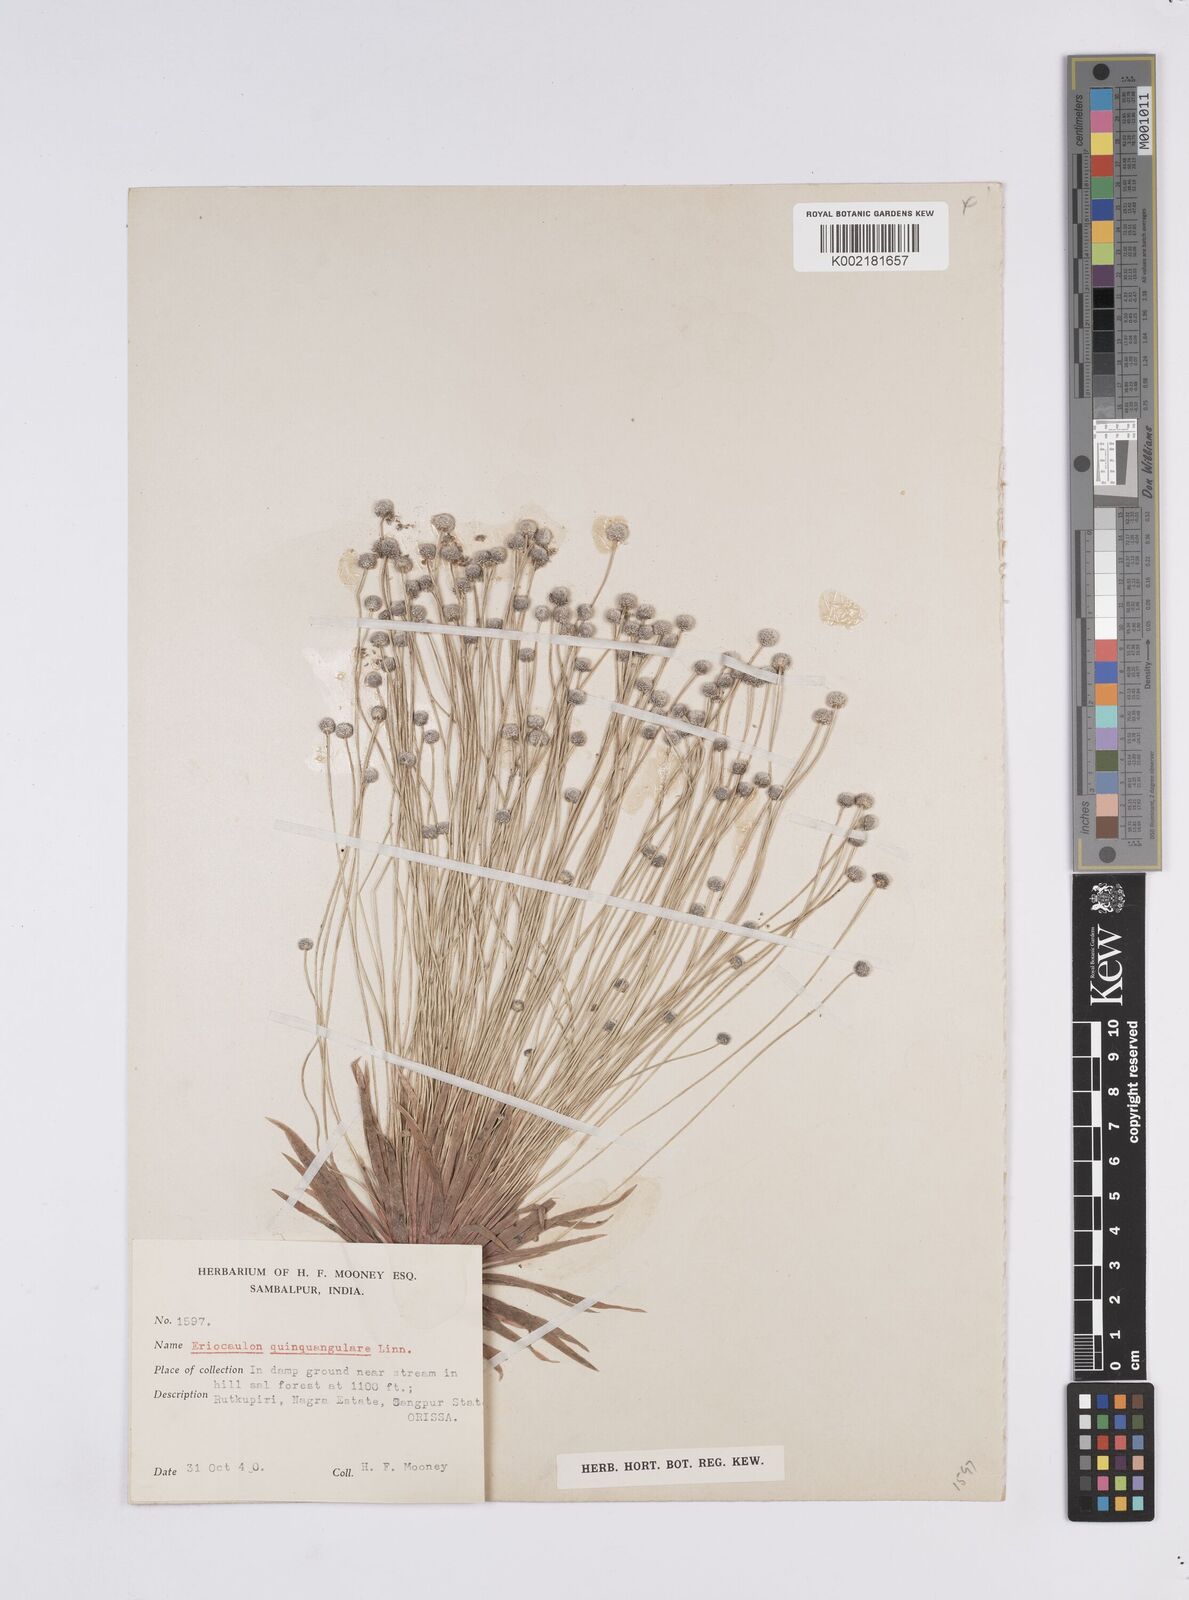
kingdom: Plantae
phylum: Tracheophyta
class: Liliopsida
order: Poales
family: Eriocaulaceae
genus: Eriocaulon
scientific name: Eriocaulon quinquangulare
